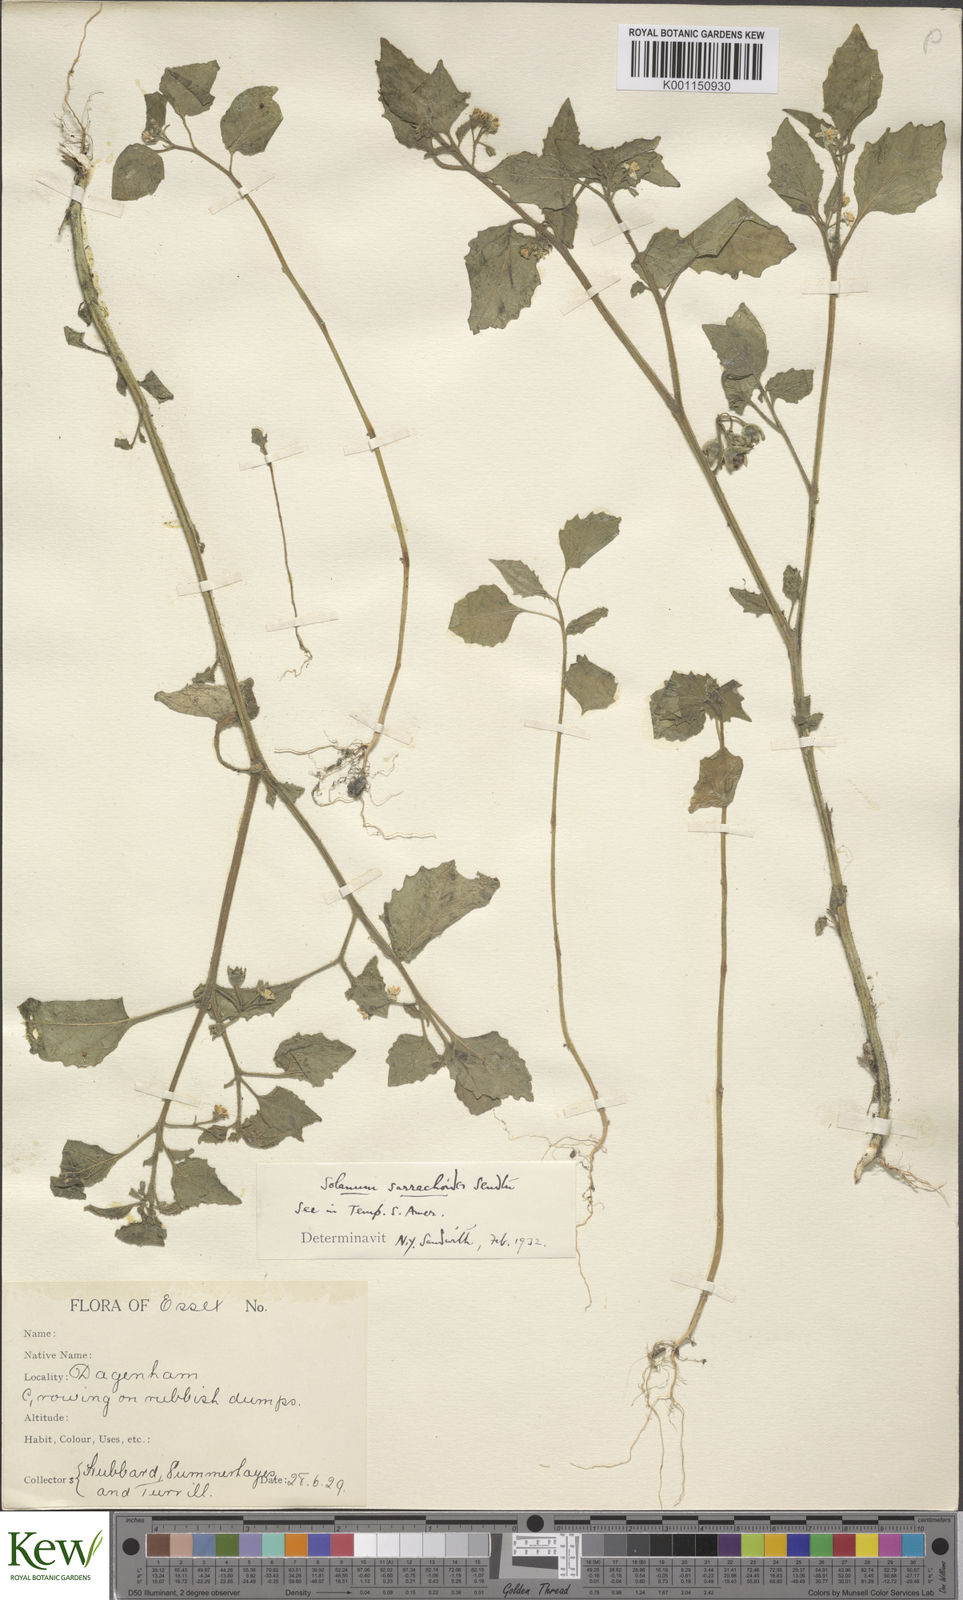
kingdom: Plantae
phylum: Tracheophyta
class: Magnoliopsida
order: Solanales
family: Solanaceae
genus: Solanum
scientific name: Solanum sarrachoides
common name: Leafy-fruited nightshade
